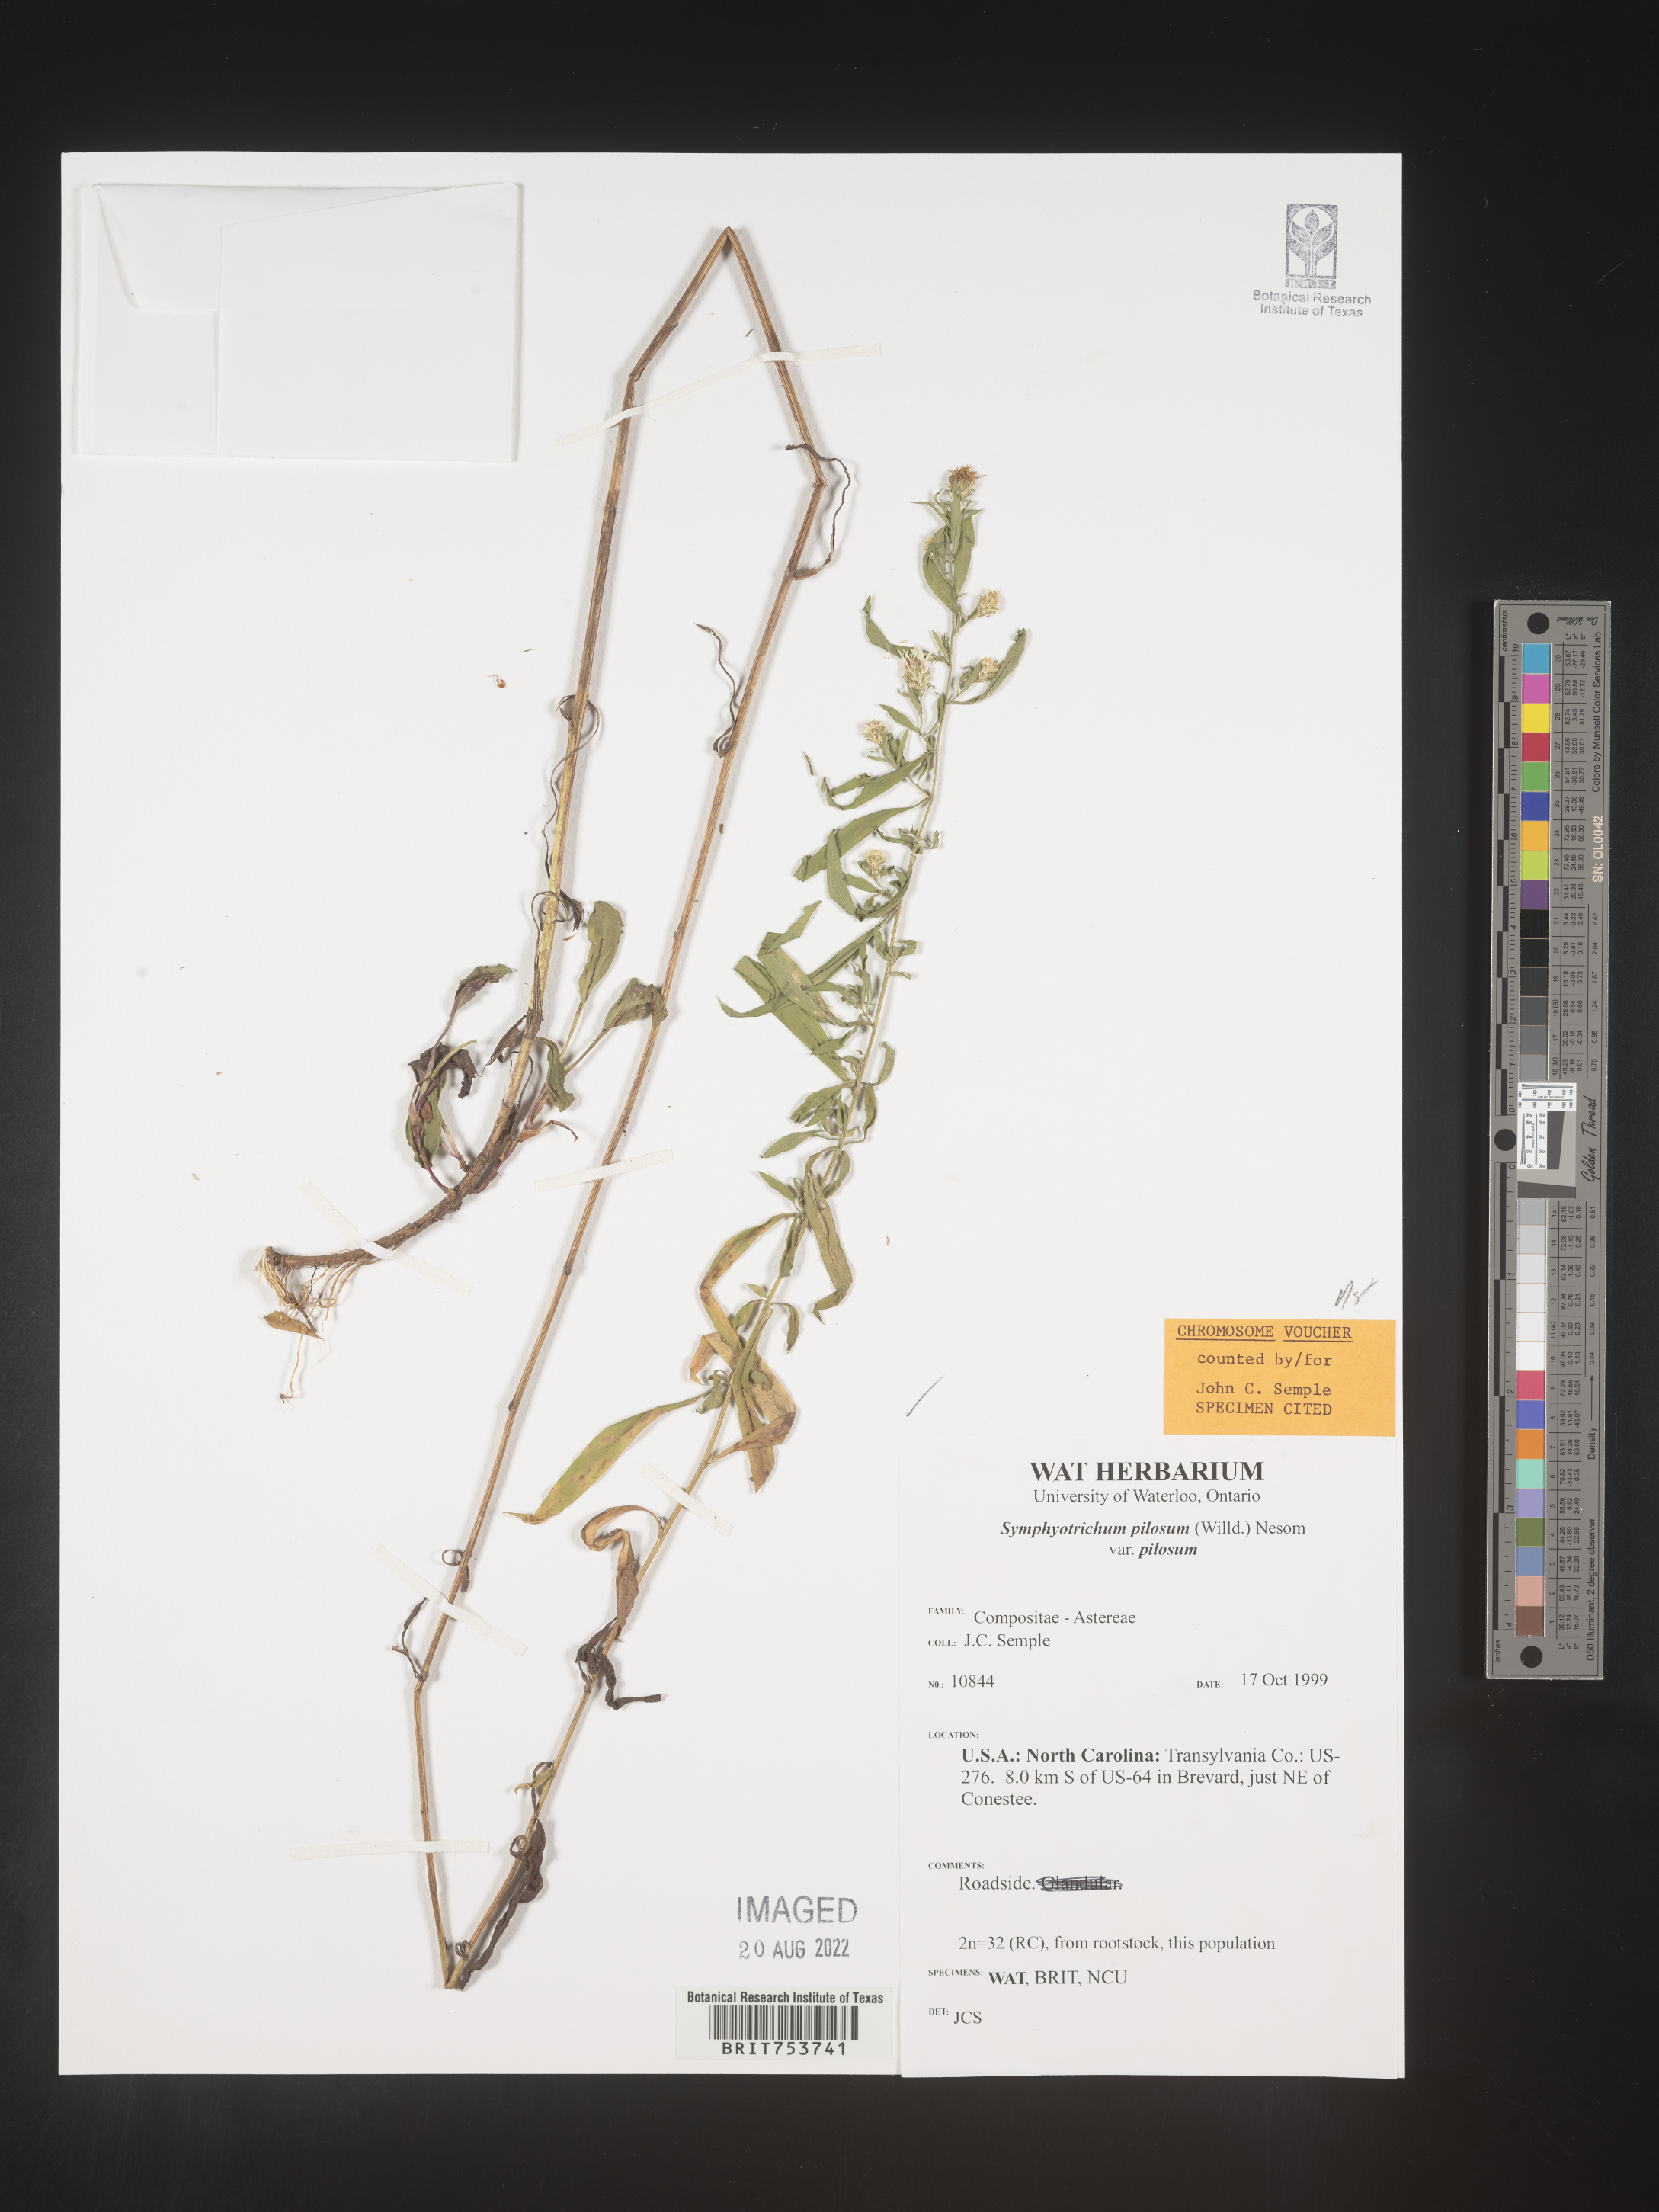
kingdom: Plantae
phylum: Tracheophyta
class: Magnoliopsida
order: Asterales
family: Asteraceae
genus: Symphyotrichum
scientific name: Symphyotrichum pilosum
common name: Awl aster
